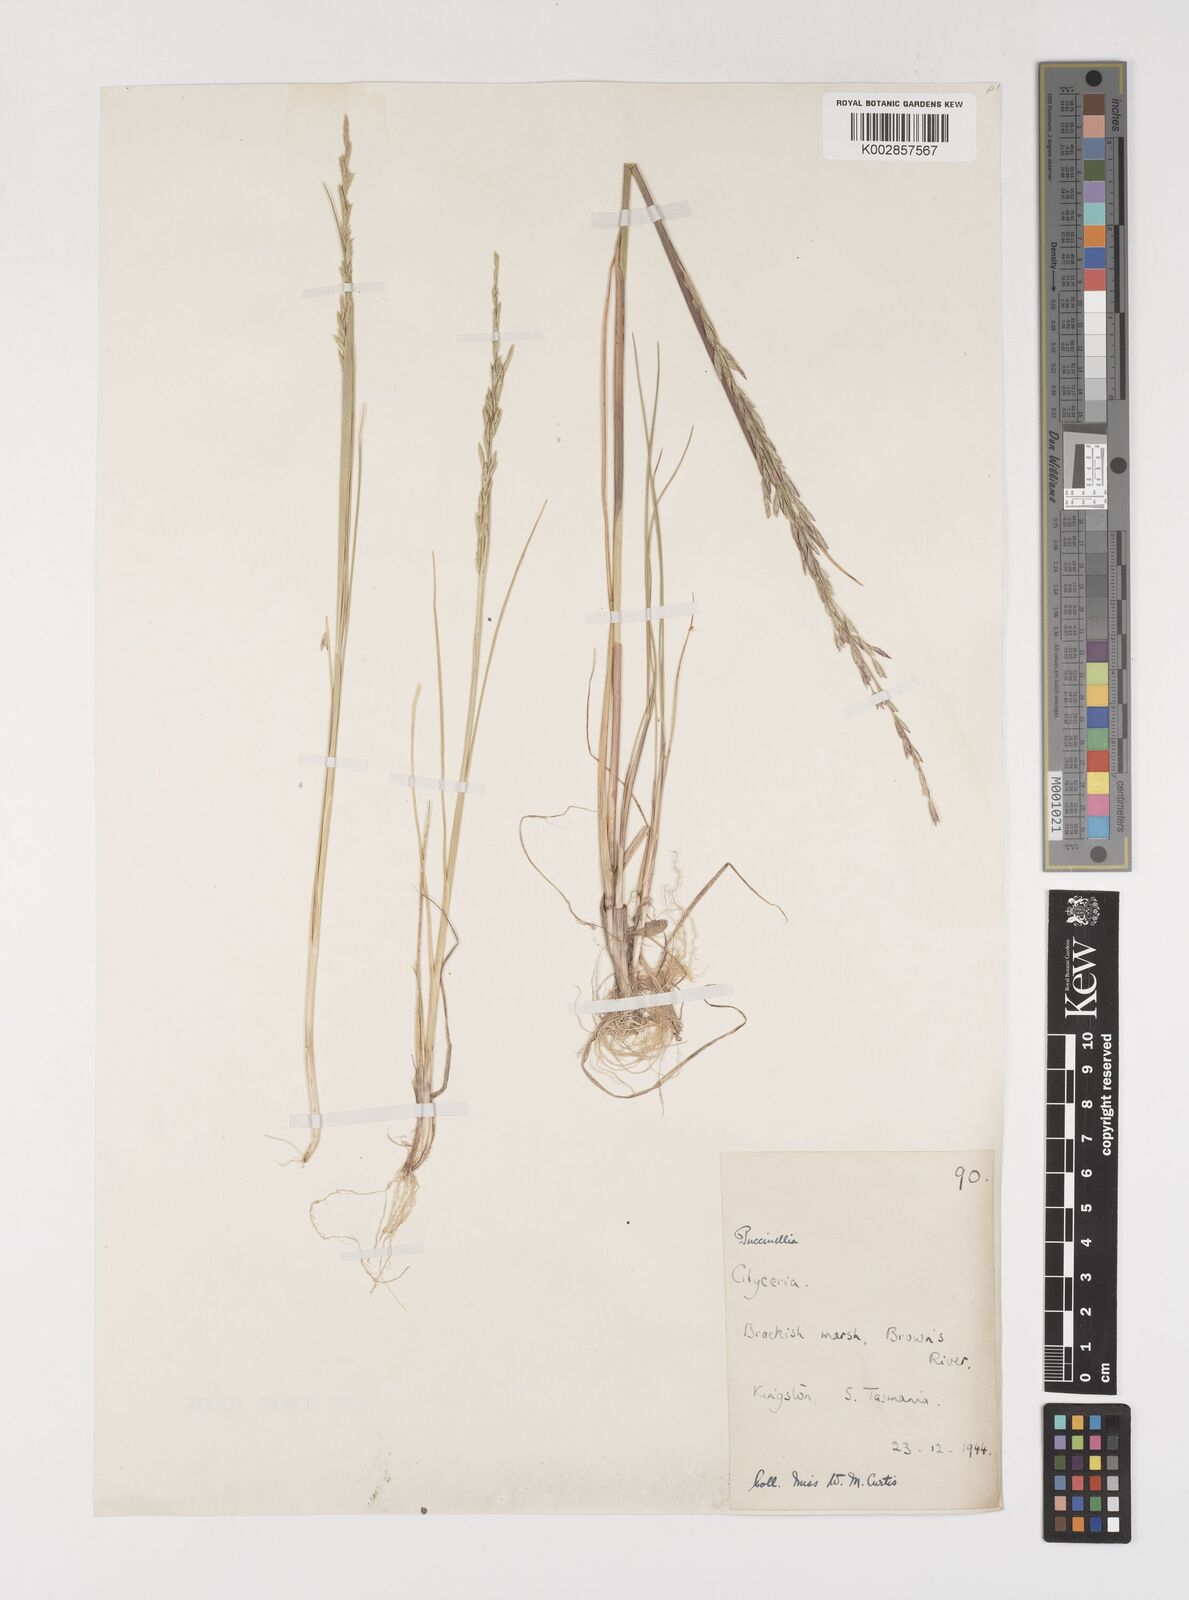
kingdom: Plantae
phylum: Tracheophyta
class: Liliopsida
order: Poales
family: Poaceae
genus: Puccinellia
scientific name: Puccinellia stricta
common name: Australian saltmarsh grass
